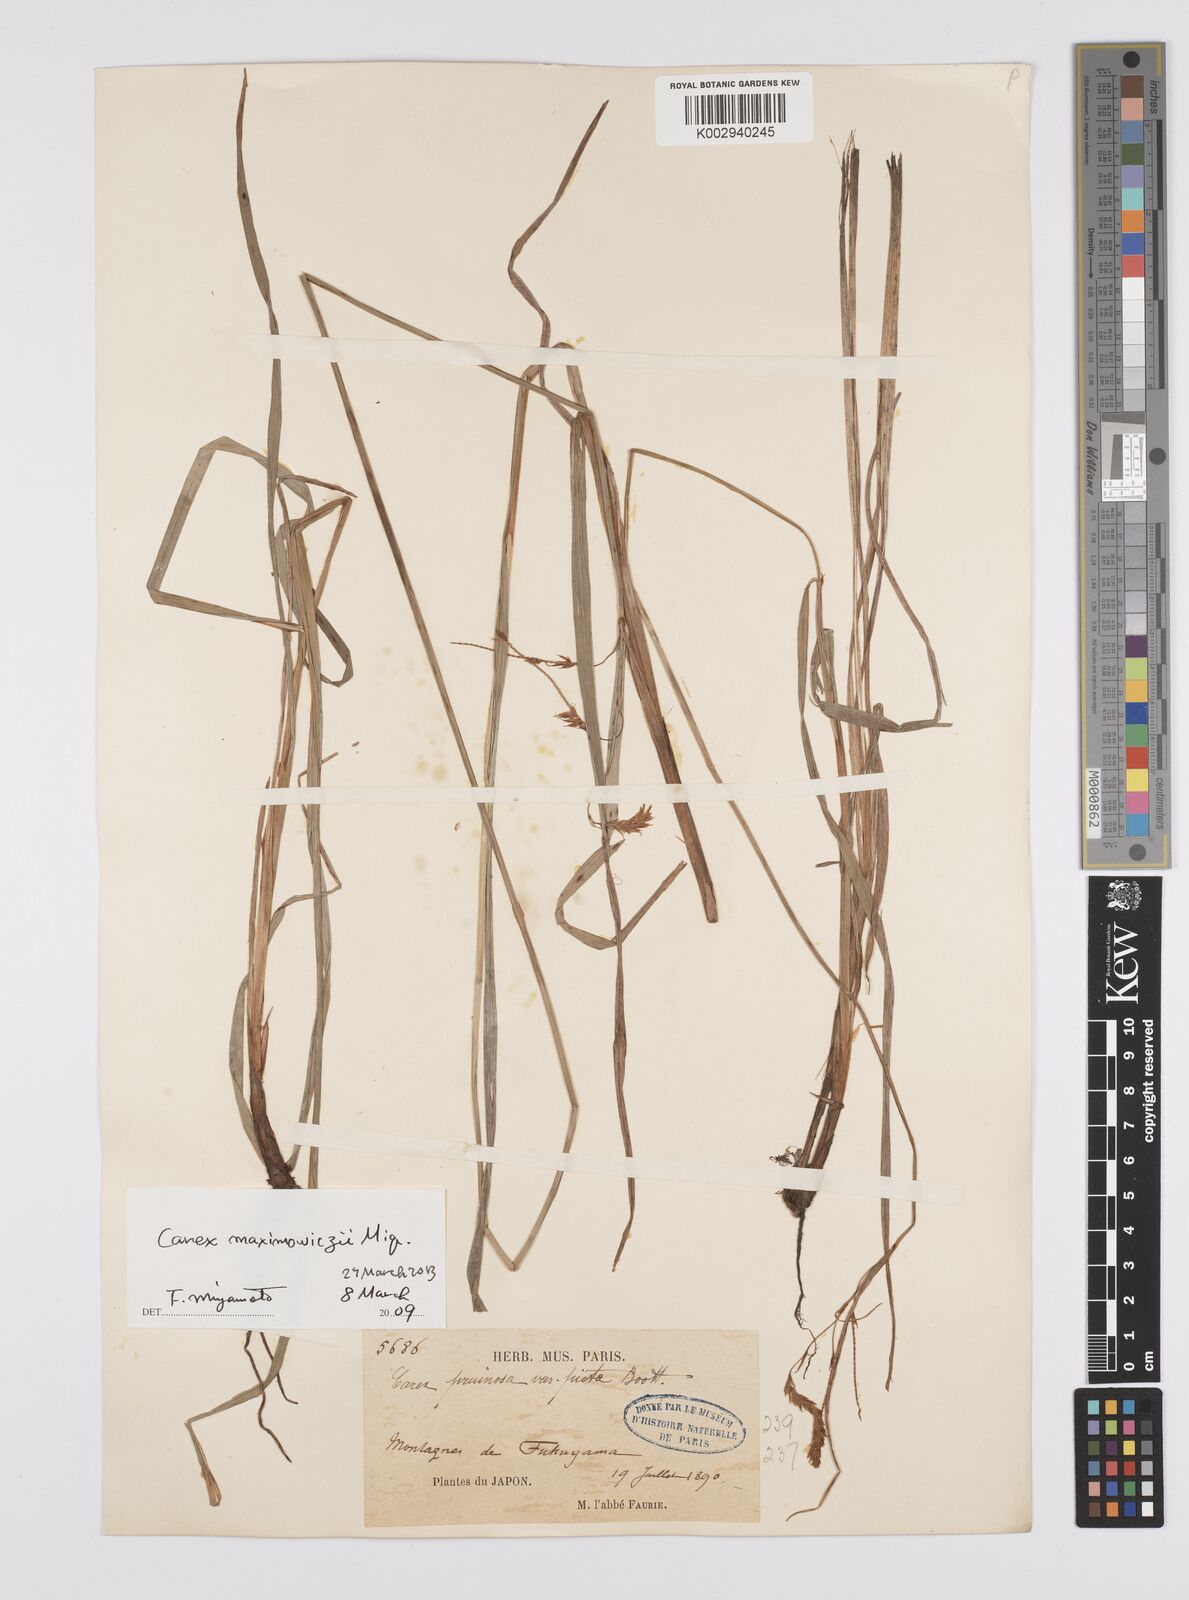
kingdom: Plantae
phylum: Tracheophyta
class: Liliopsida
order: Poales
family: Cyperaceae
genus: Carex
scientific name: Carex pruinosa
